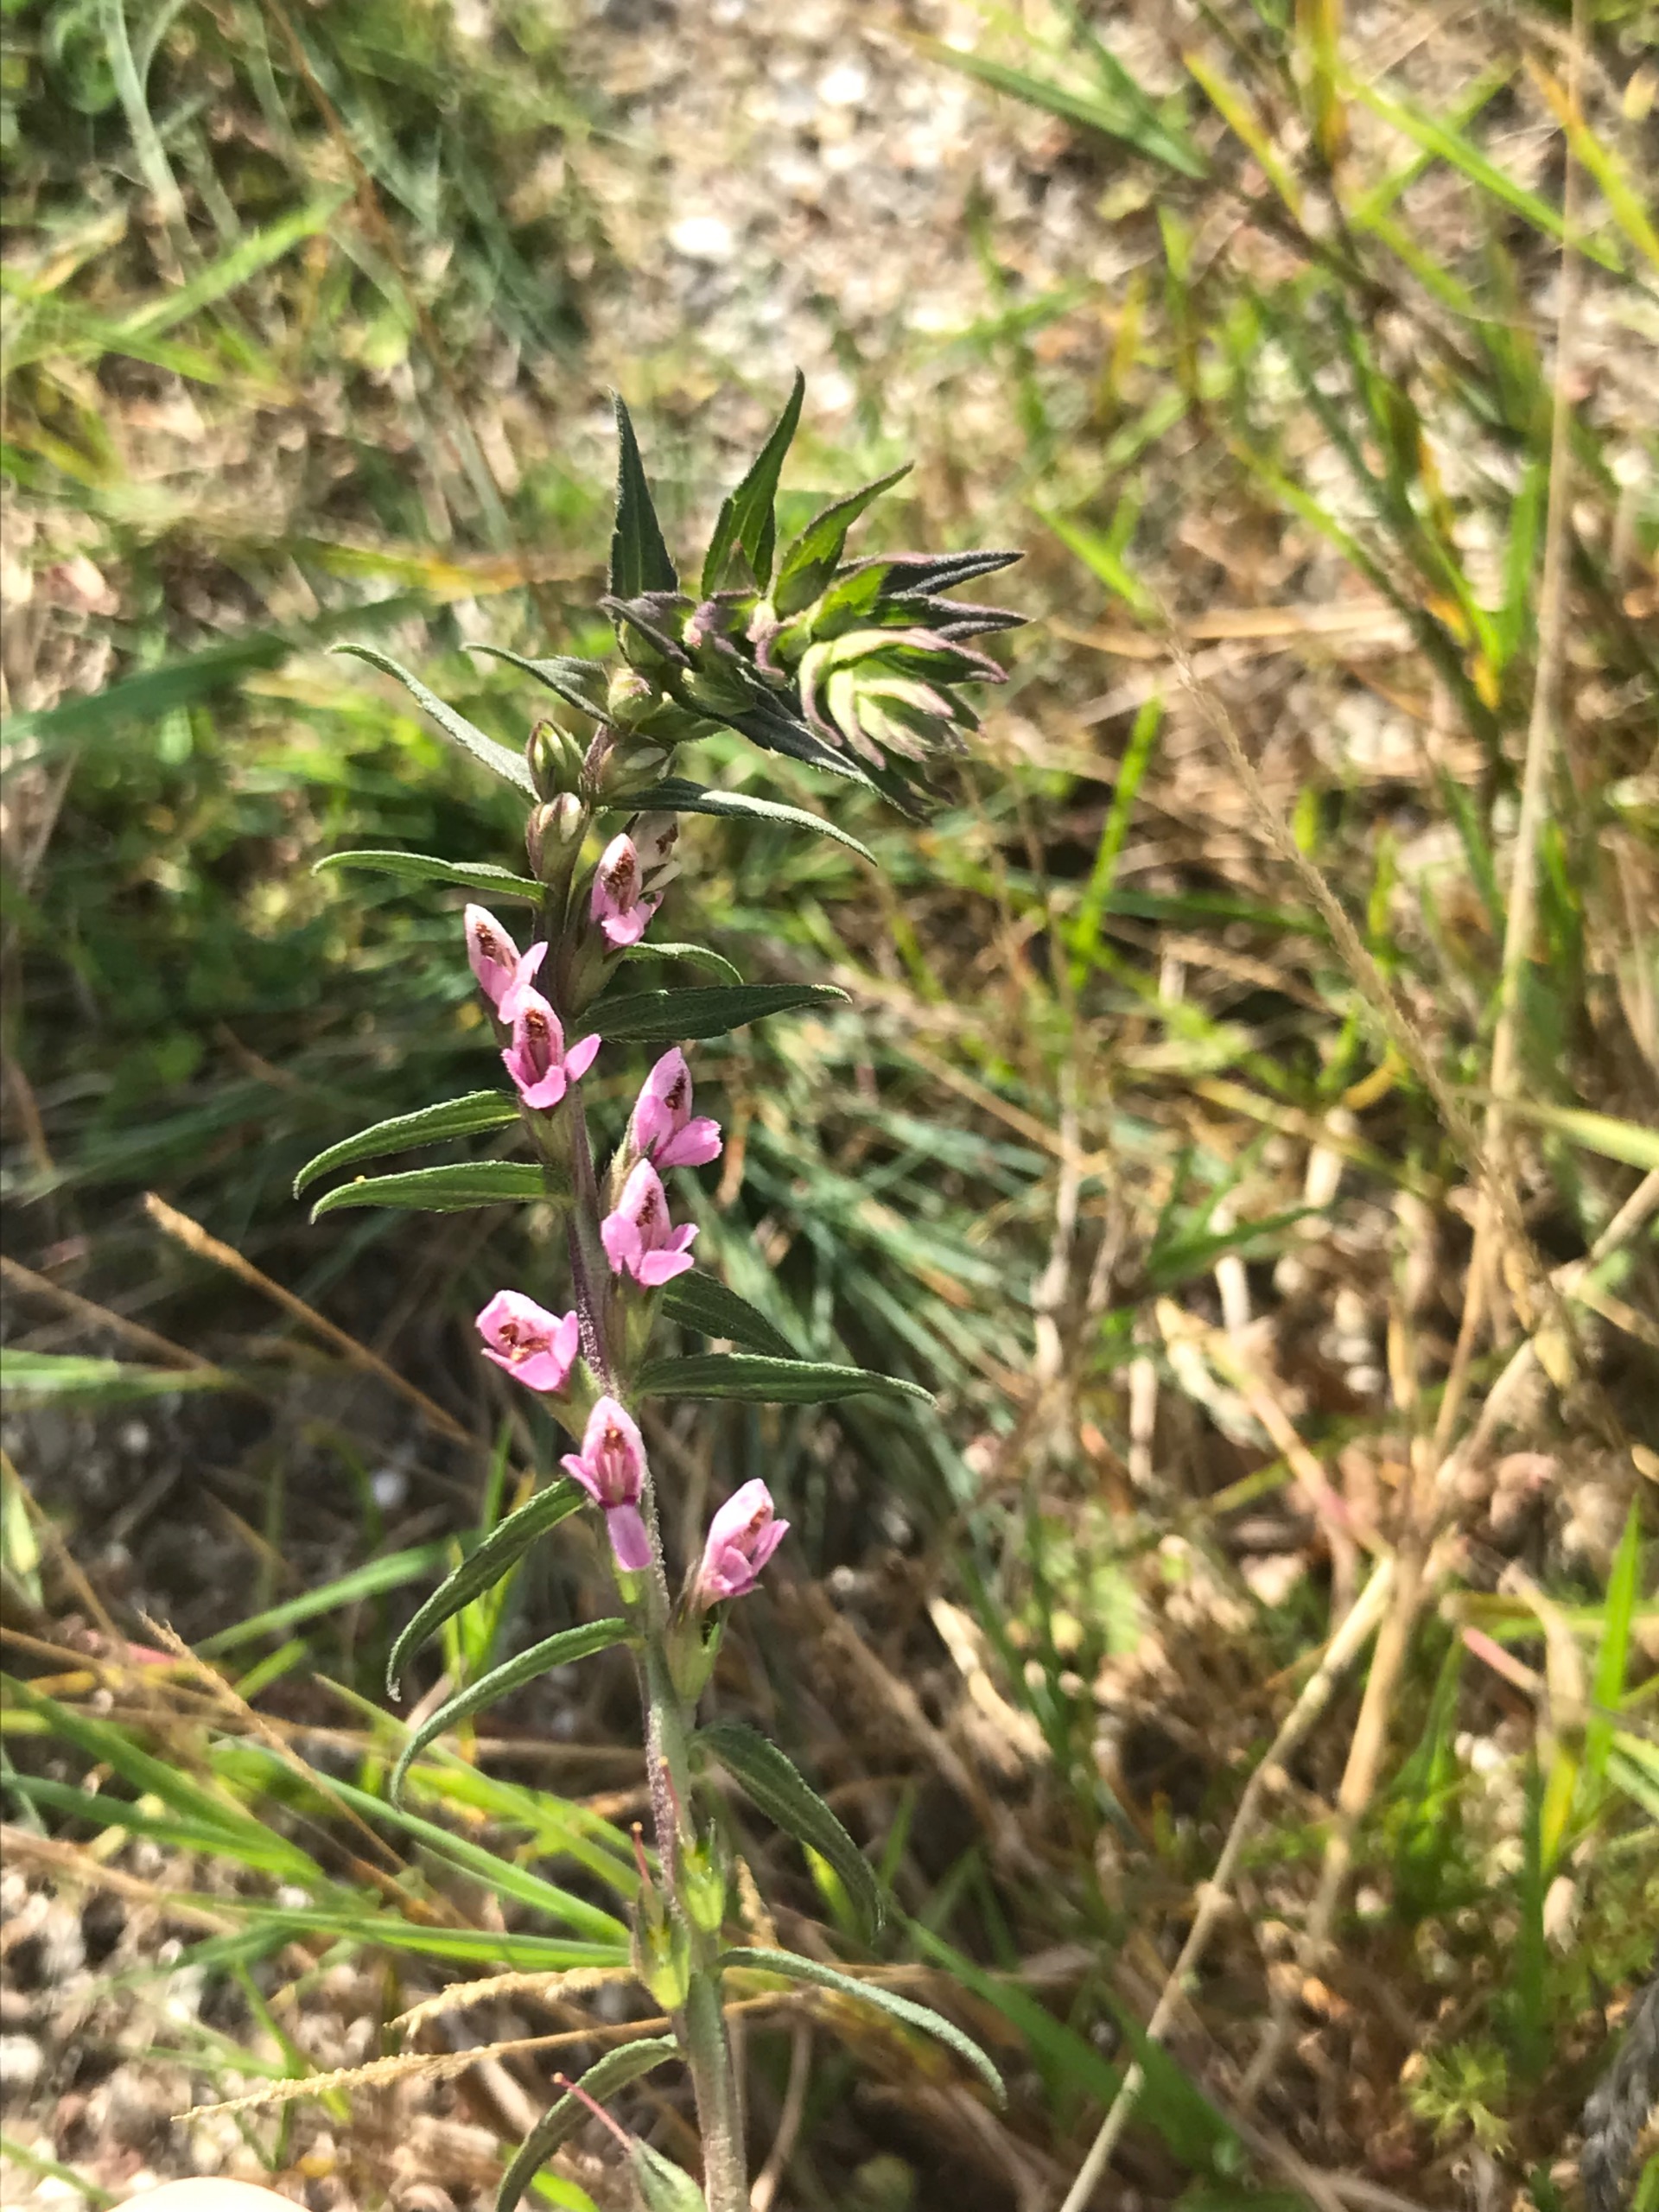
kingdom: Plantae
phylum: Tracheophyta
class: Magnoliopsida
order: Lamiales
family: Orobanchaceae
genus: Odontites
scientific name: Odontites vernus
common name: Mark-rødtop
